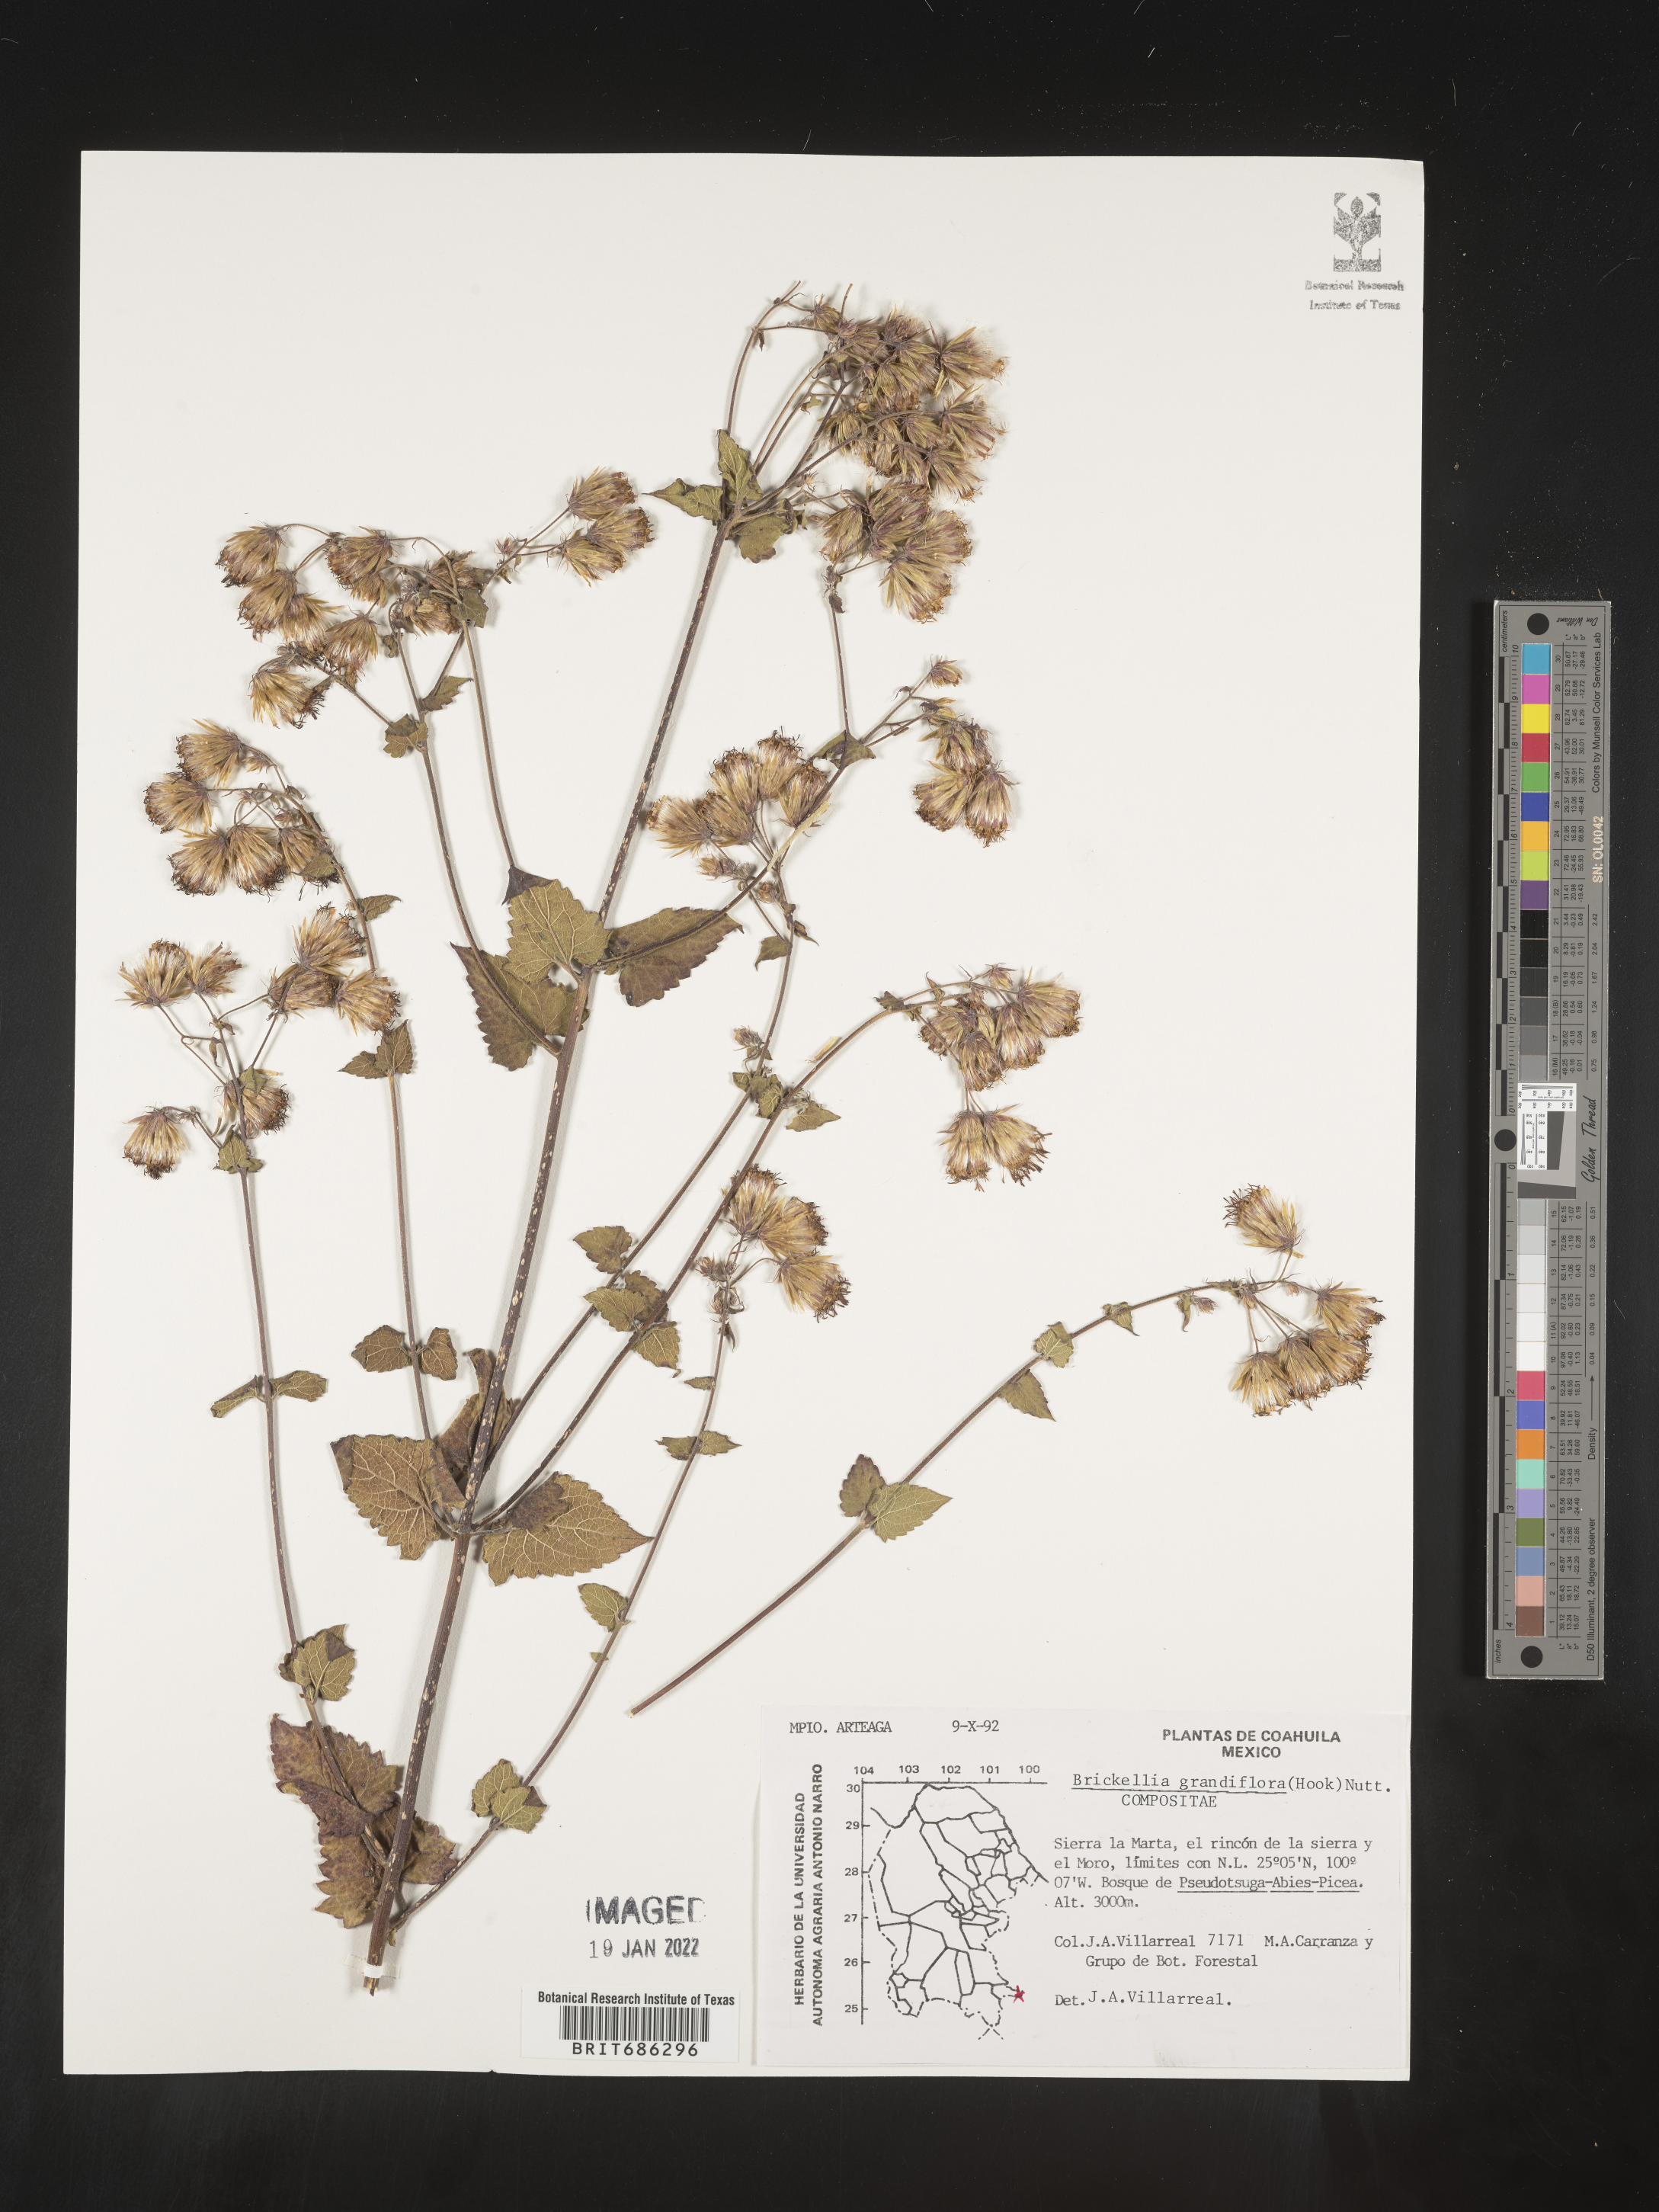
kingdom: Plantae
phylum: Tracheophyta
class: Magnoliopsida
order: Asterales
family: Asteraceae
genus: Brickellia
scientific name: Brickellia grandiflora
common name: Large-flowered brickellia
